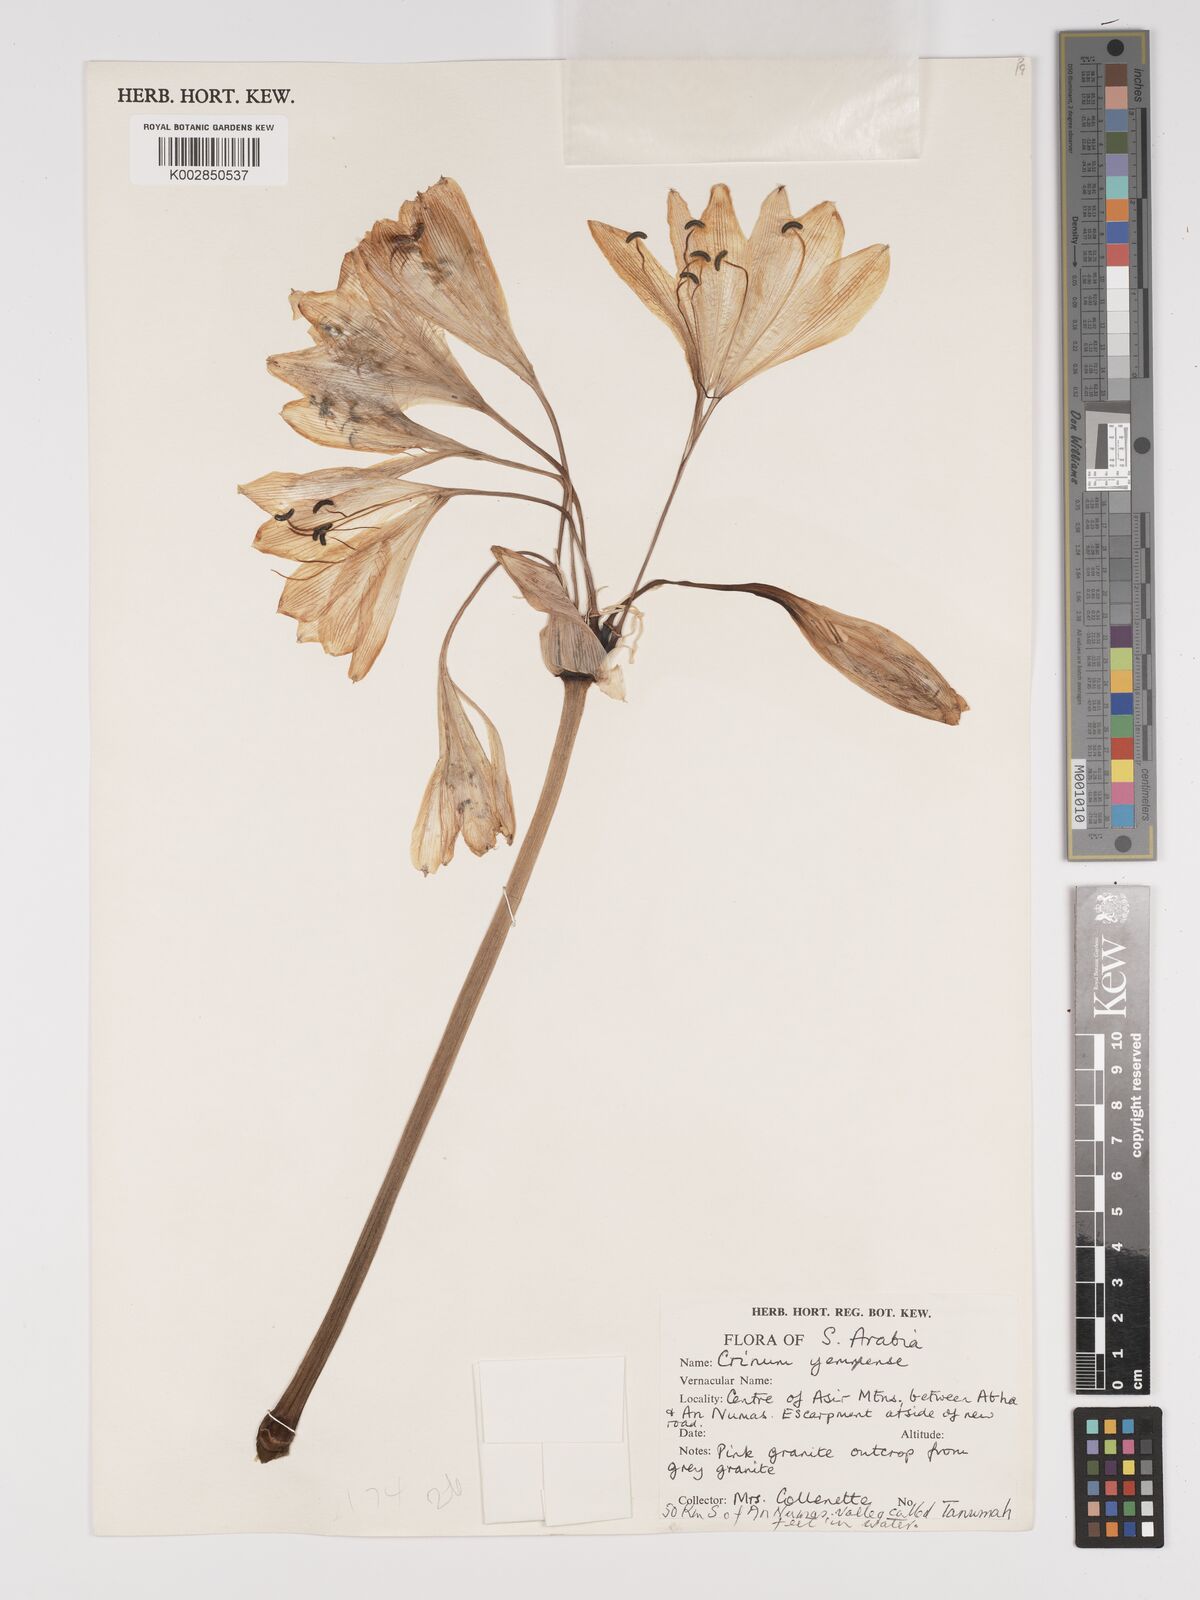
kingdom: Plantae
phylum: Tracheophyta
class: Liliopsida
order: Asparagales
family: Amaryllidaceae
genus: Crinum
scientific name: Crinum album
